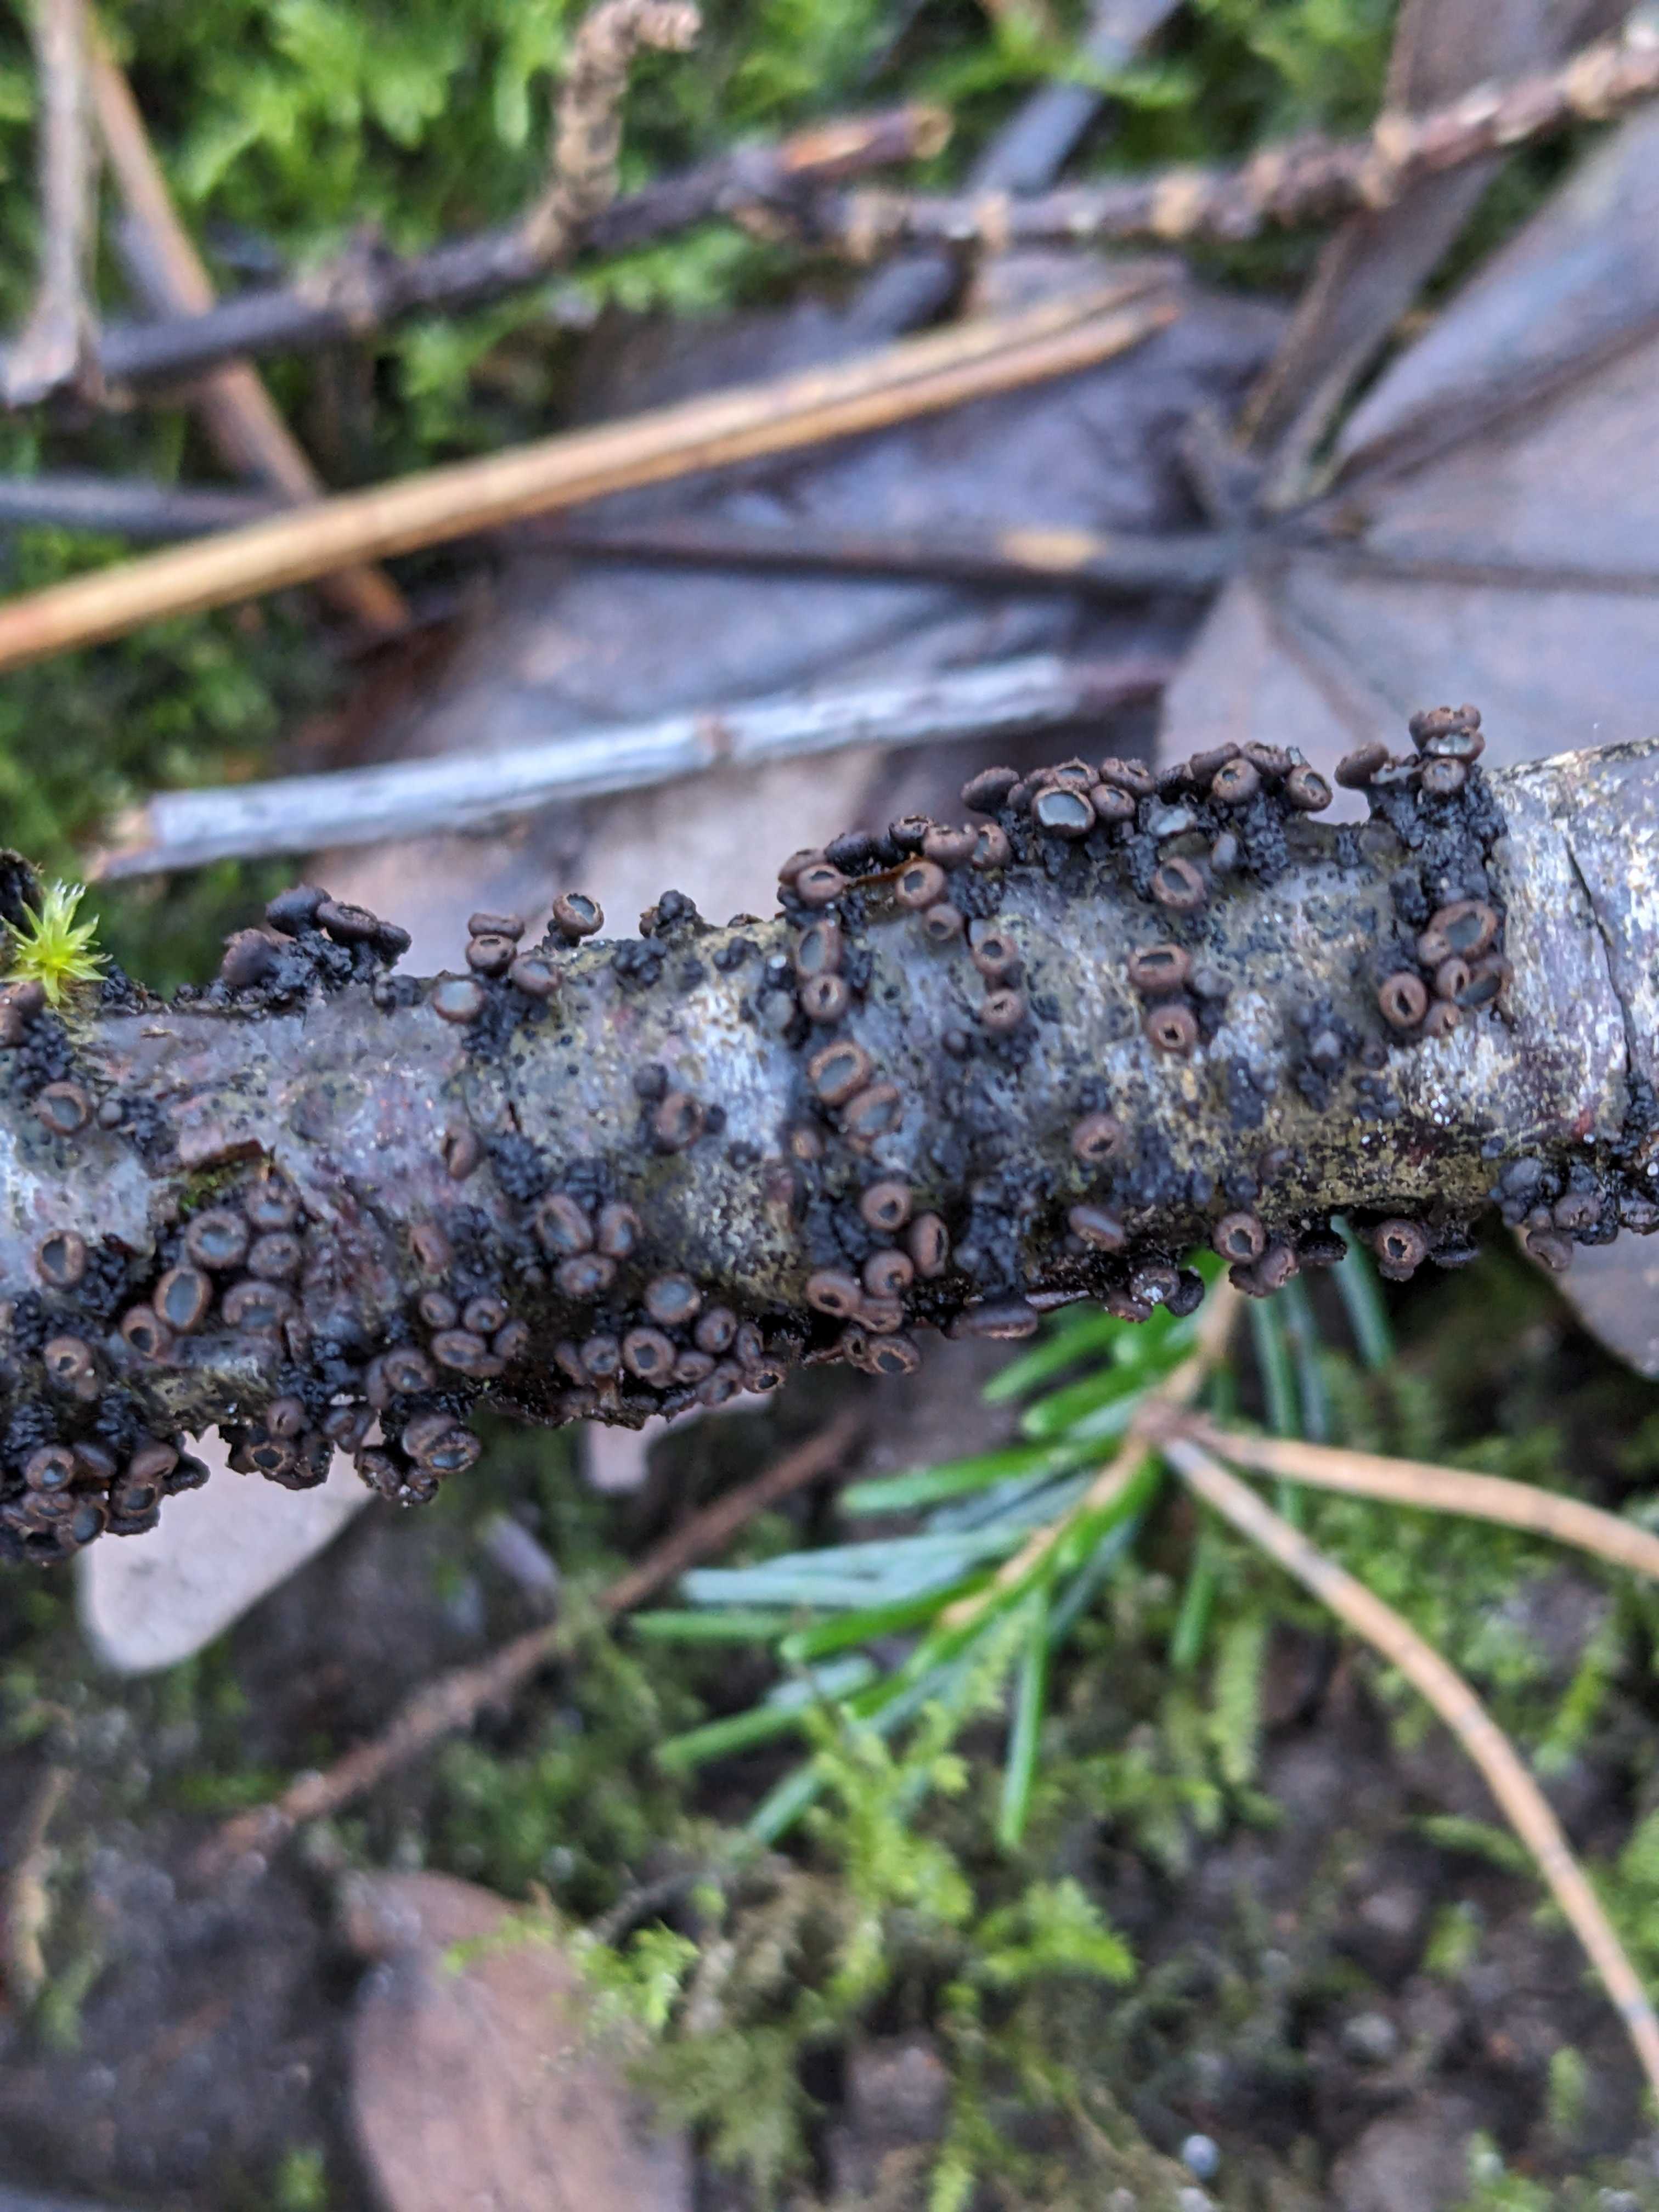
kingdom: Fungi
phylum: Ascomycota
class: Leotiomycetes
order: Helotiales
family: Godroniaceae
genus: Godronia
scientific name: Godronia ribis
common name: ribs-urneskive
